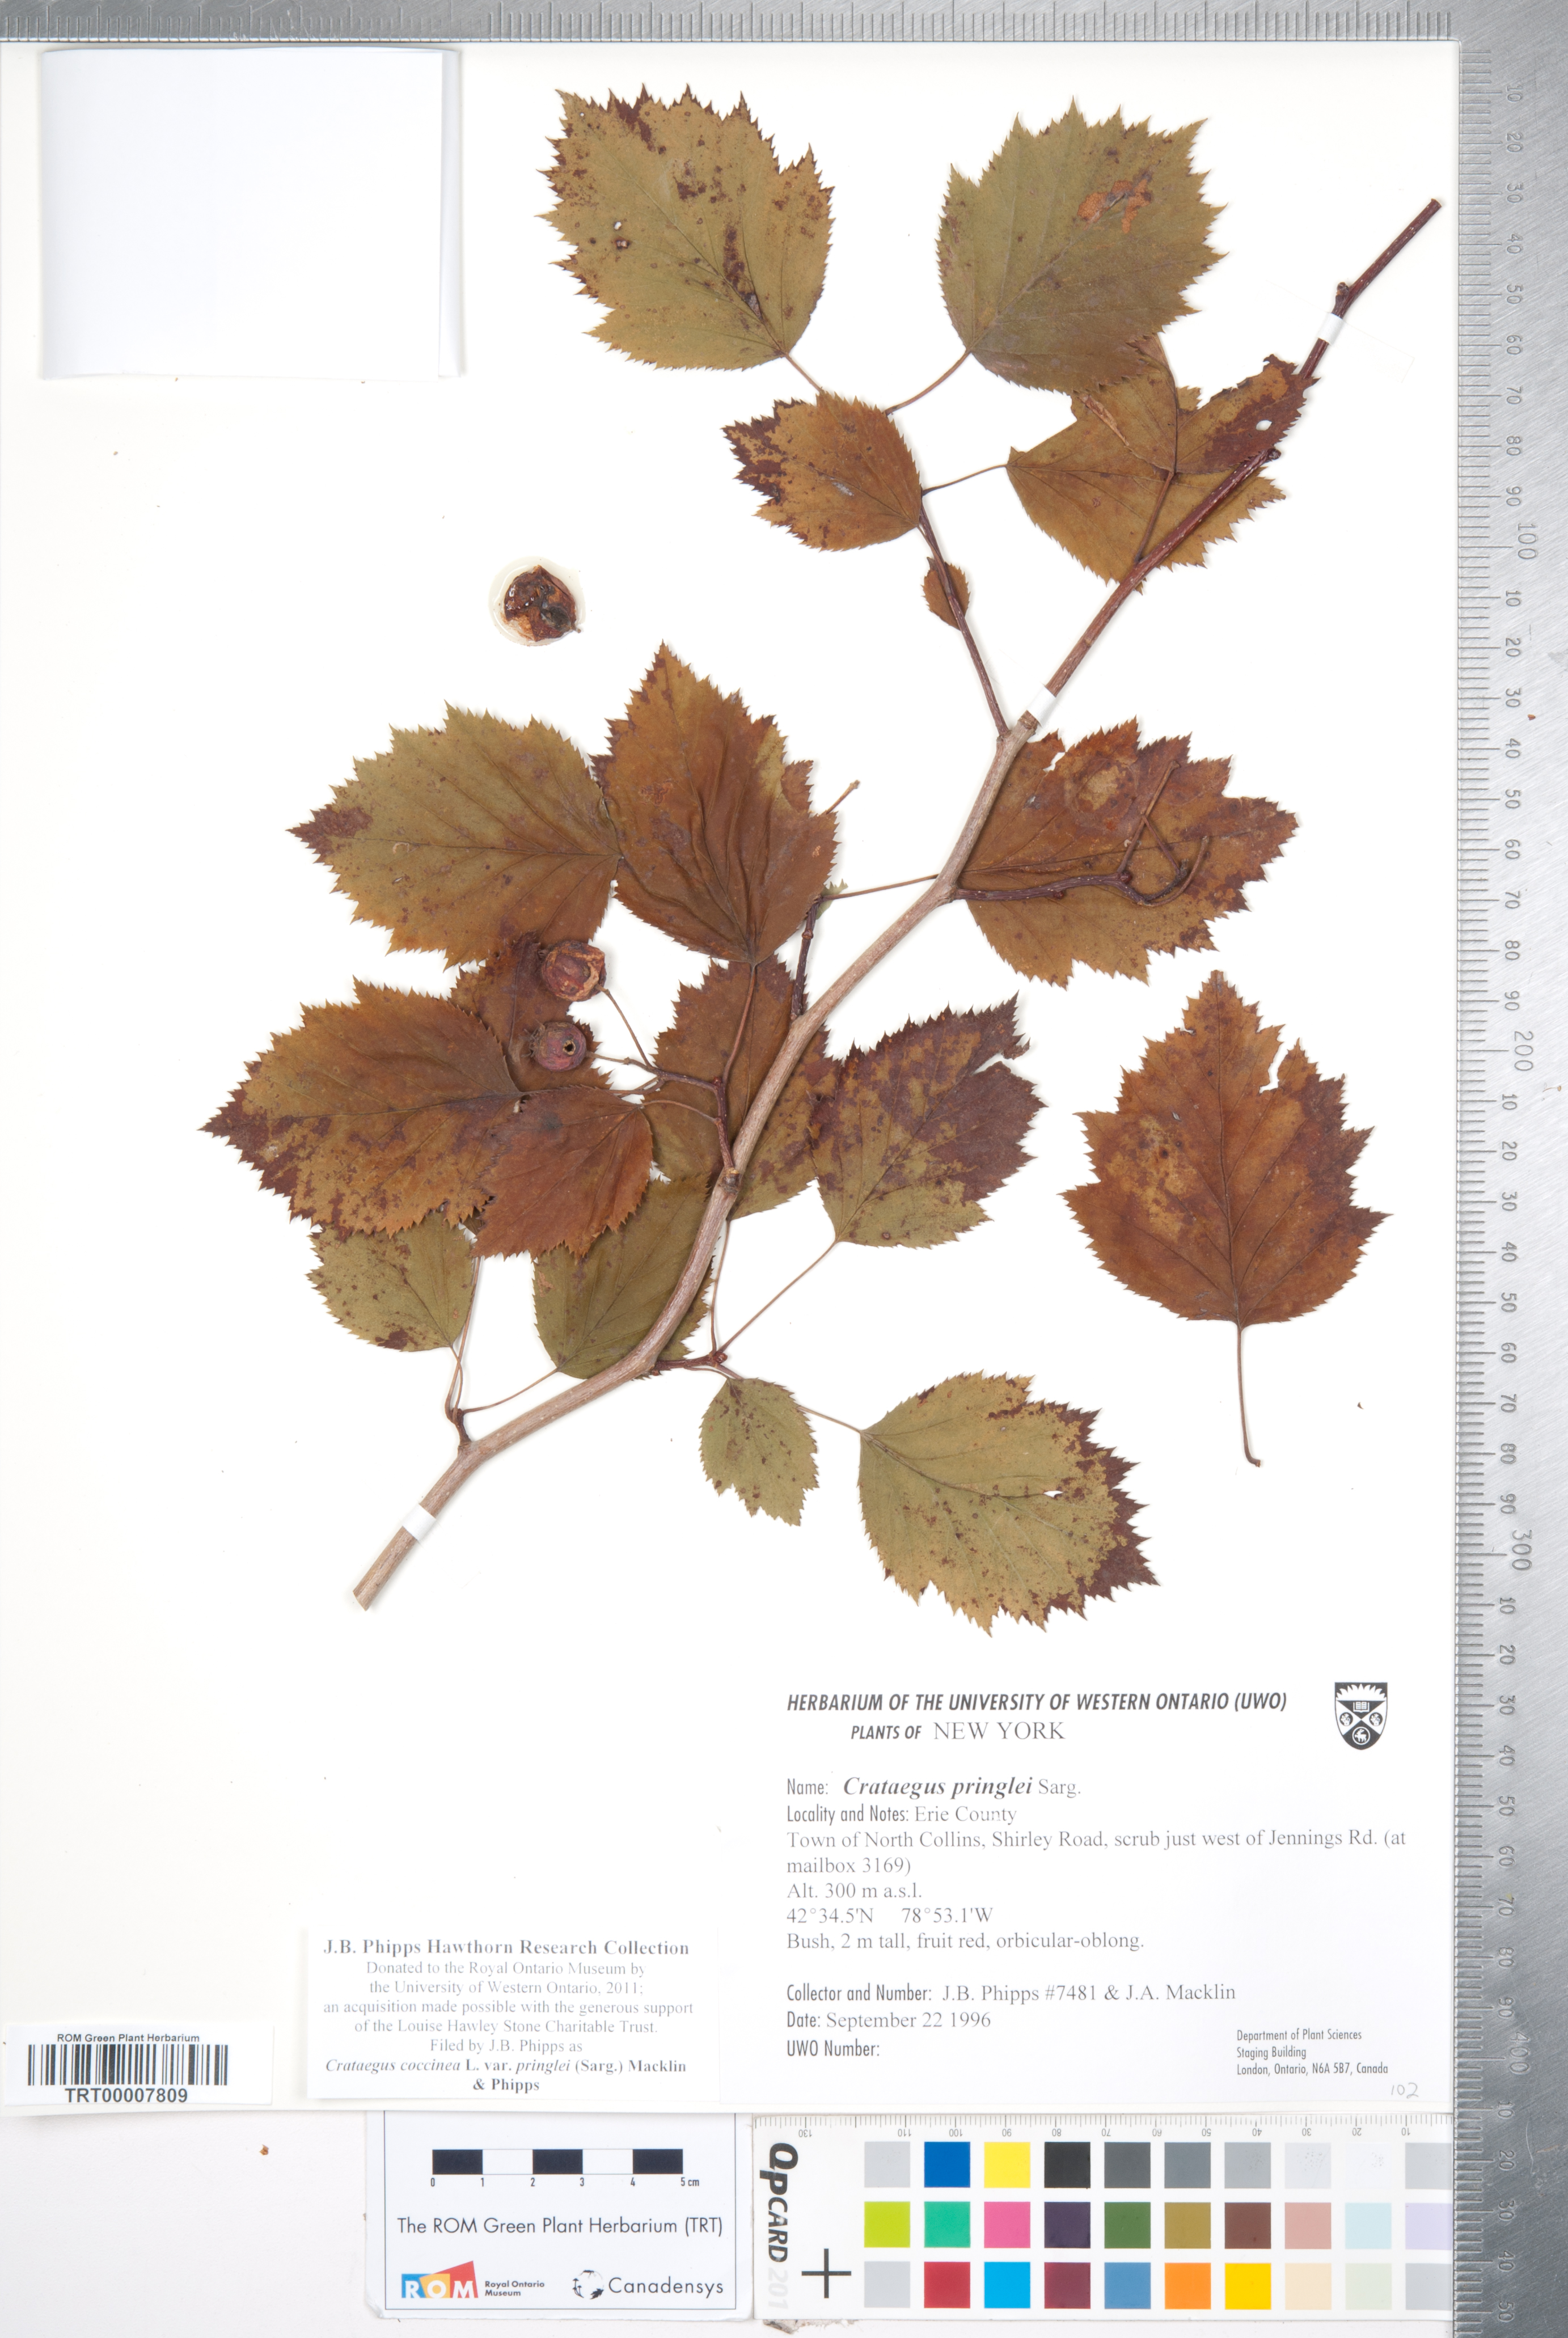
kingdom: Plantae
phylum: Tracheophyta
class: Magnoliopsida
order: Rosales
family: Rosaceae
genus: Crataegus
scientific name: Crataegus coccinea
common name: Scarlet hawthorn
